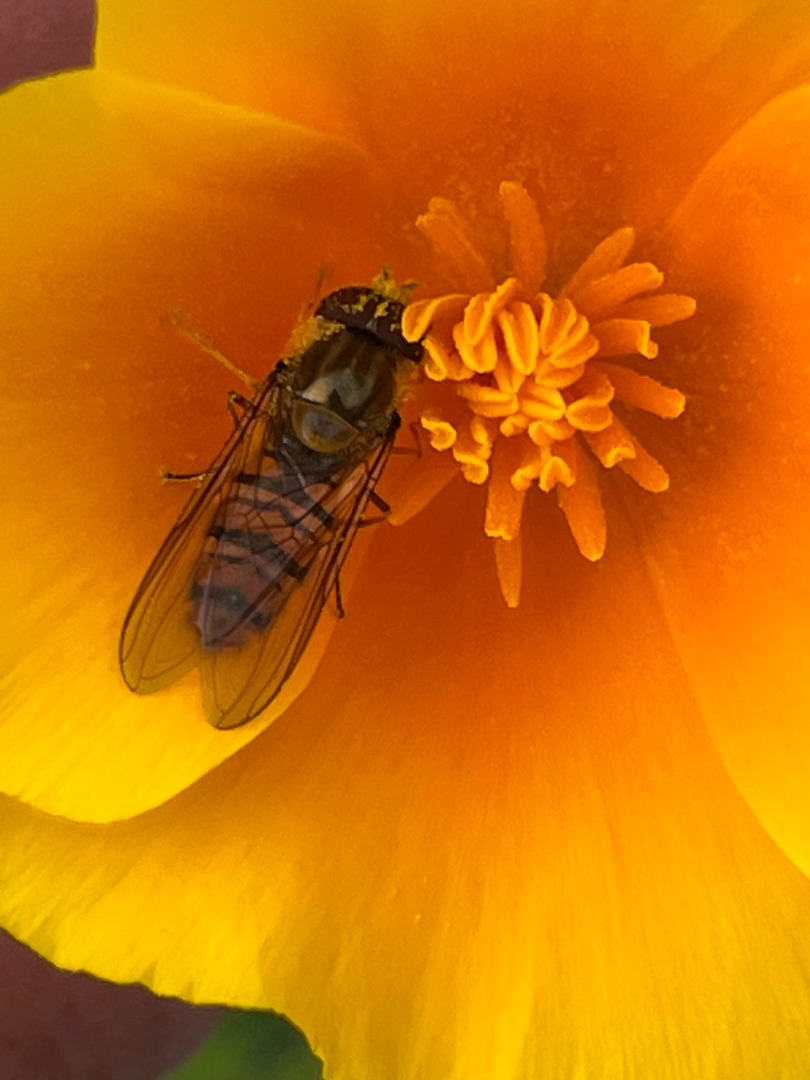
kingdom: Animalia
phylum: Arthropoda
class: Insecta
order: Diptera
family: Syrphidae
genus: Episyrphus
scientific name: Episyrphus balteatus
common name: Dobbeltbåndet svirreflue
